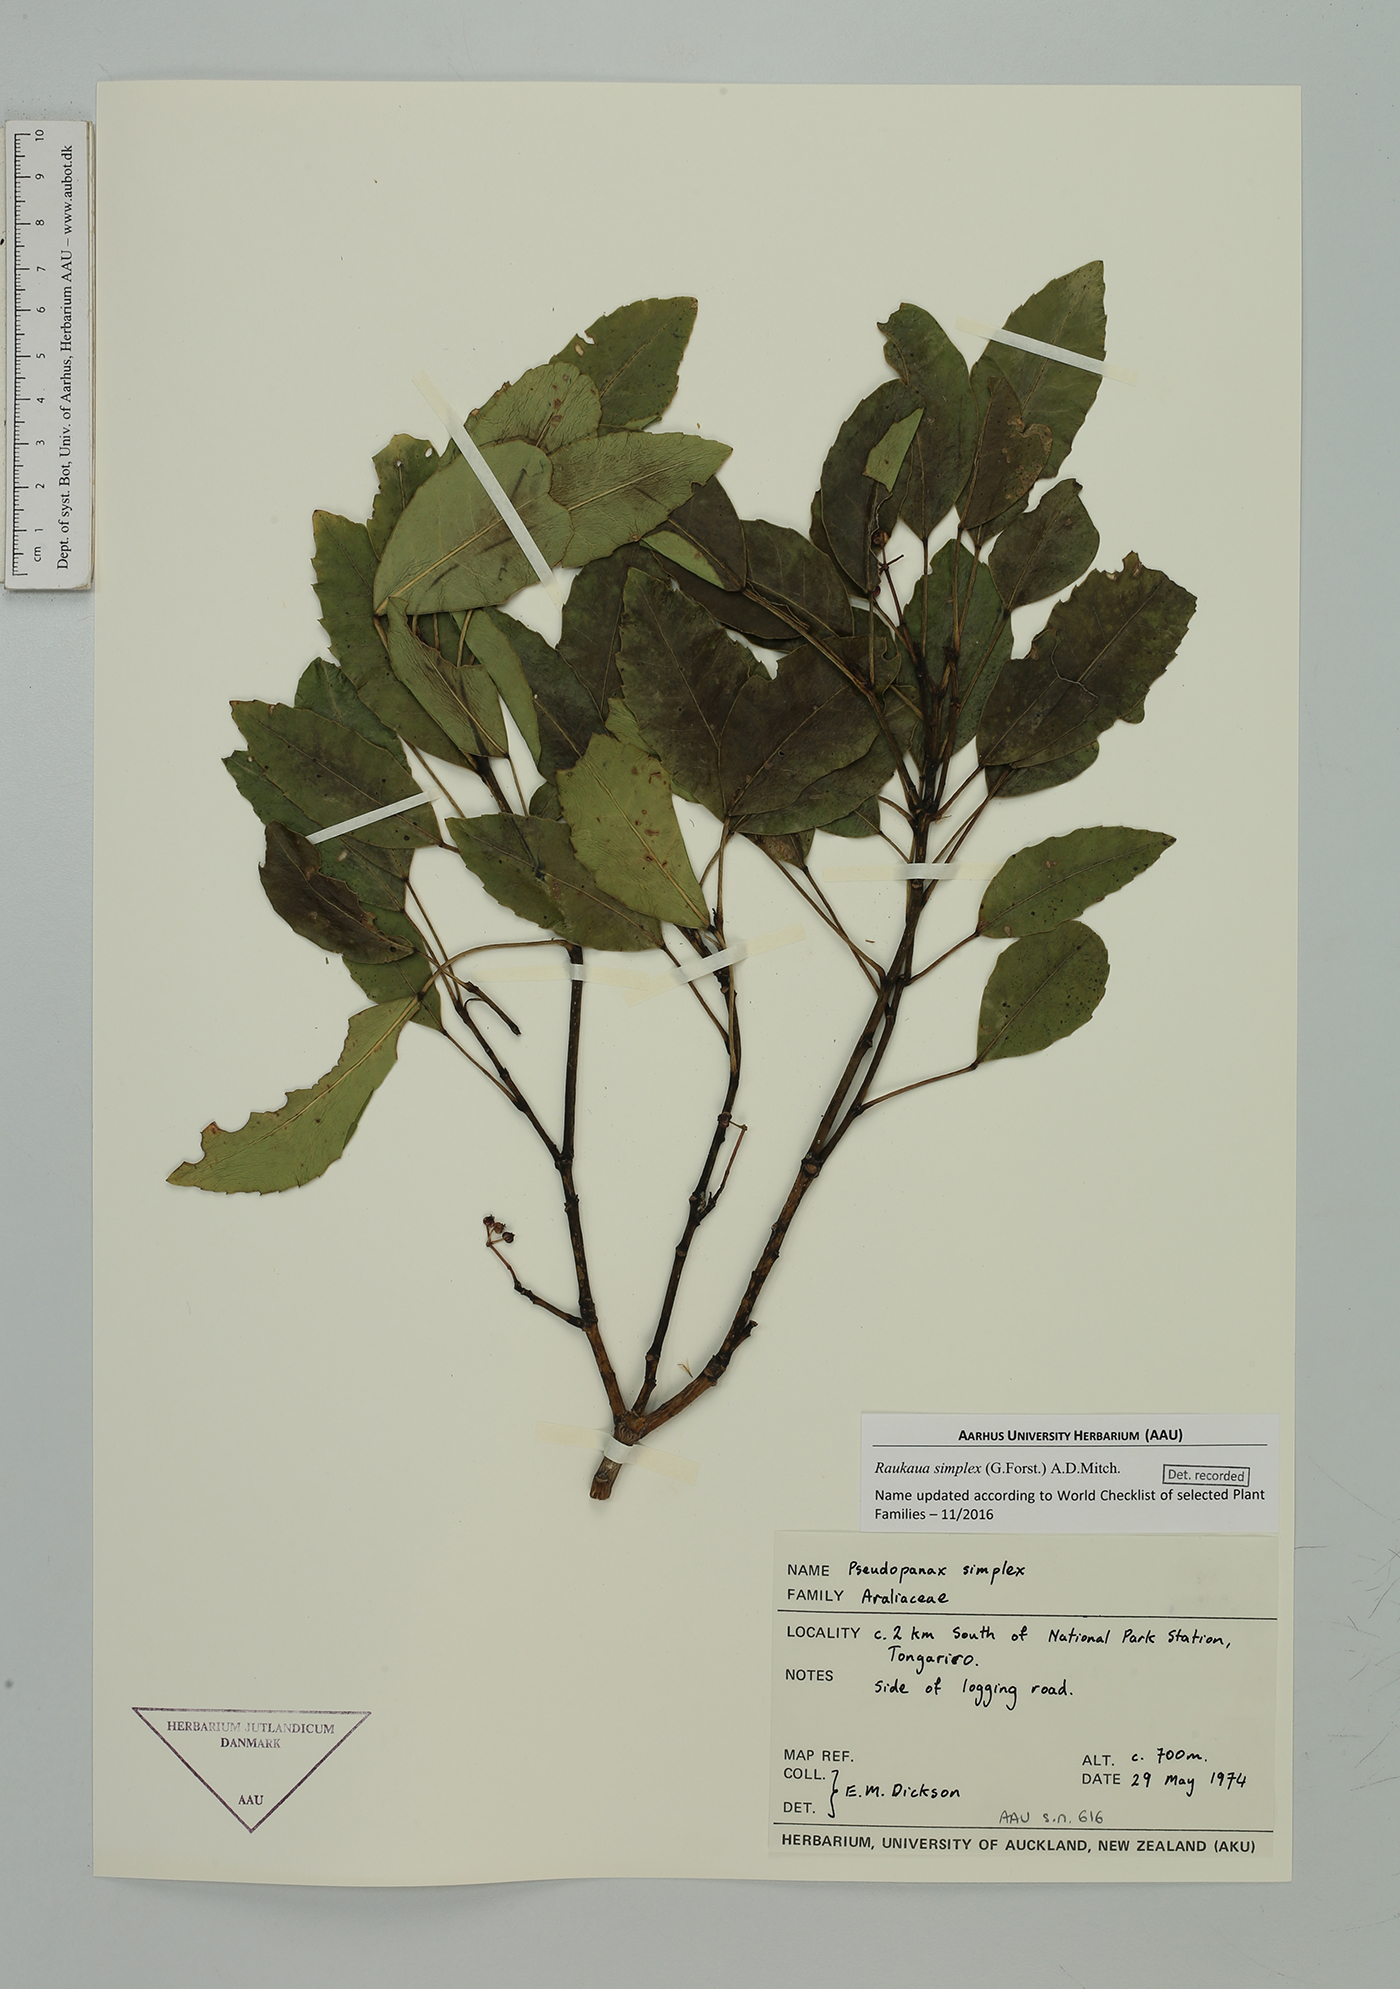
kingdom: Plantae
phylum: Tracheophyta
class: Magnoliopsida
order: Apiales
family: Araliaceae
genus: Raukaua
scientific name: Raukaua simplex
